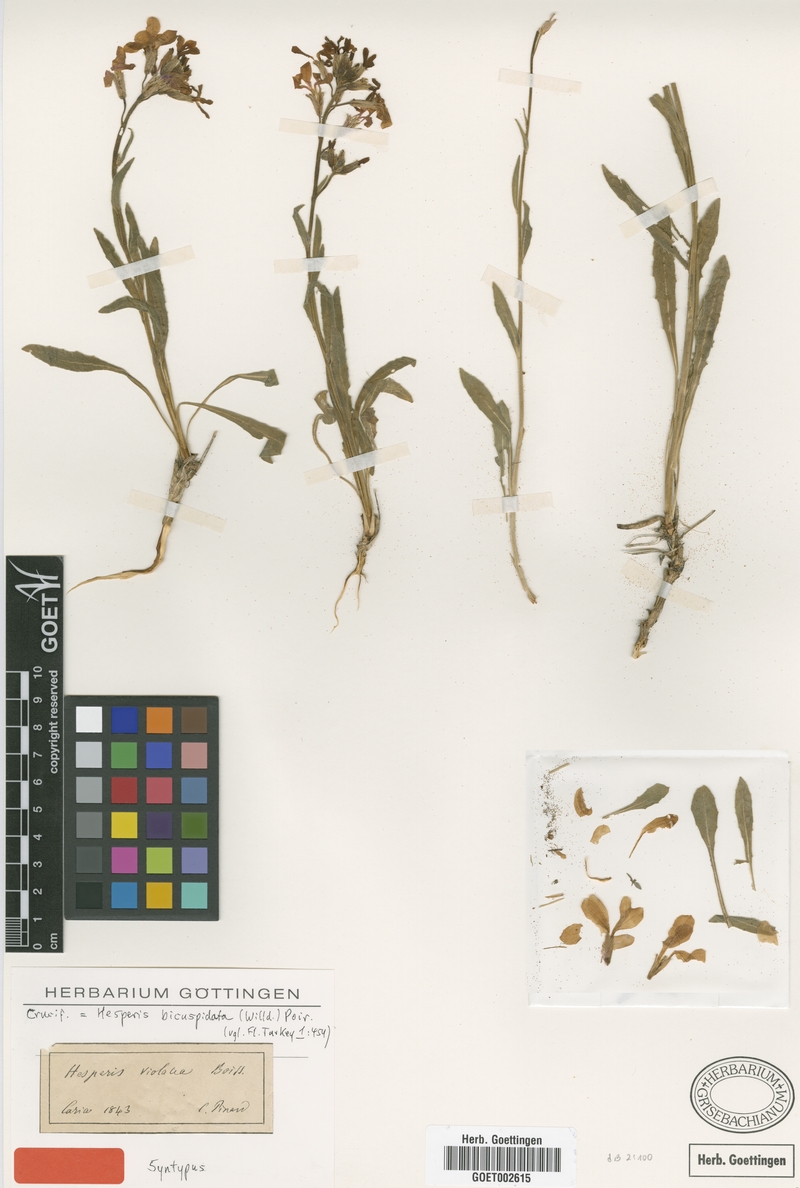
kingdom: Plantae
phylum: Tracheophyta
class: Magnoliopsida
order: Brassicales
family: Brassicaceae
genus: Hesperis
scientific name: Hesperis bicuspidata
